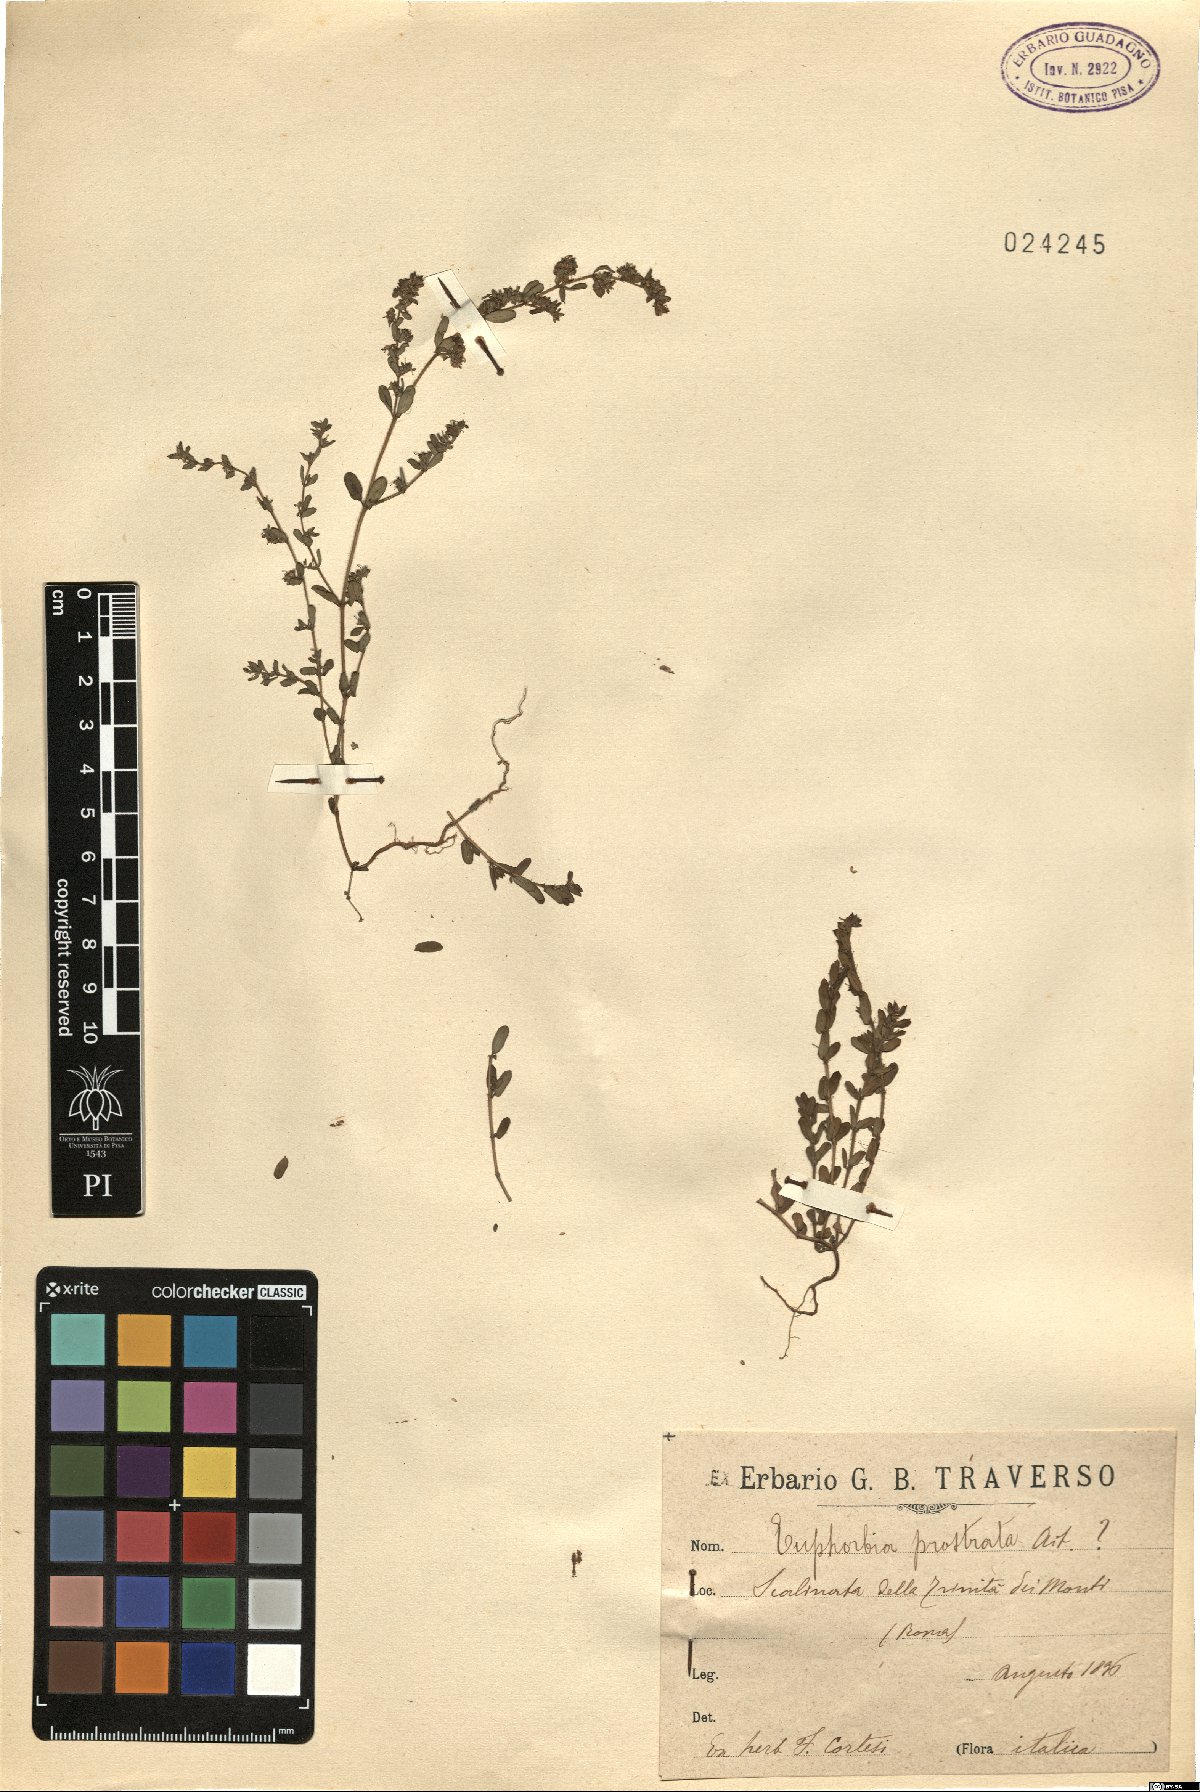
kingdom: Plantae
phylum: Tracheophyta
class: Magnoliopsida
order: Malpighiales
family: Euphorbiaceae
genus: Euphorbia
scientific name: Euphorbia prostrata
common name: Prostrate sandmat
